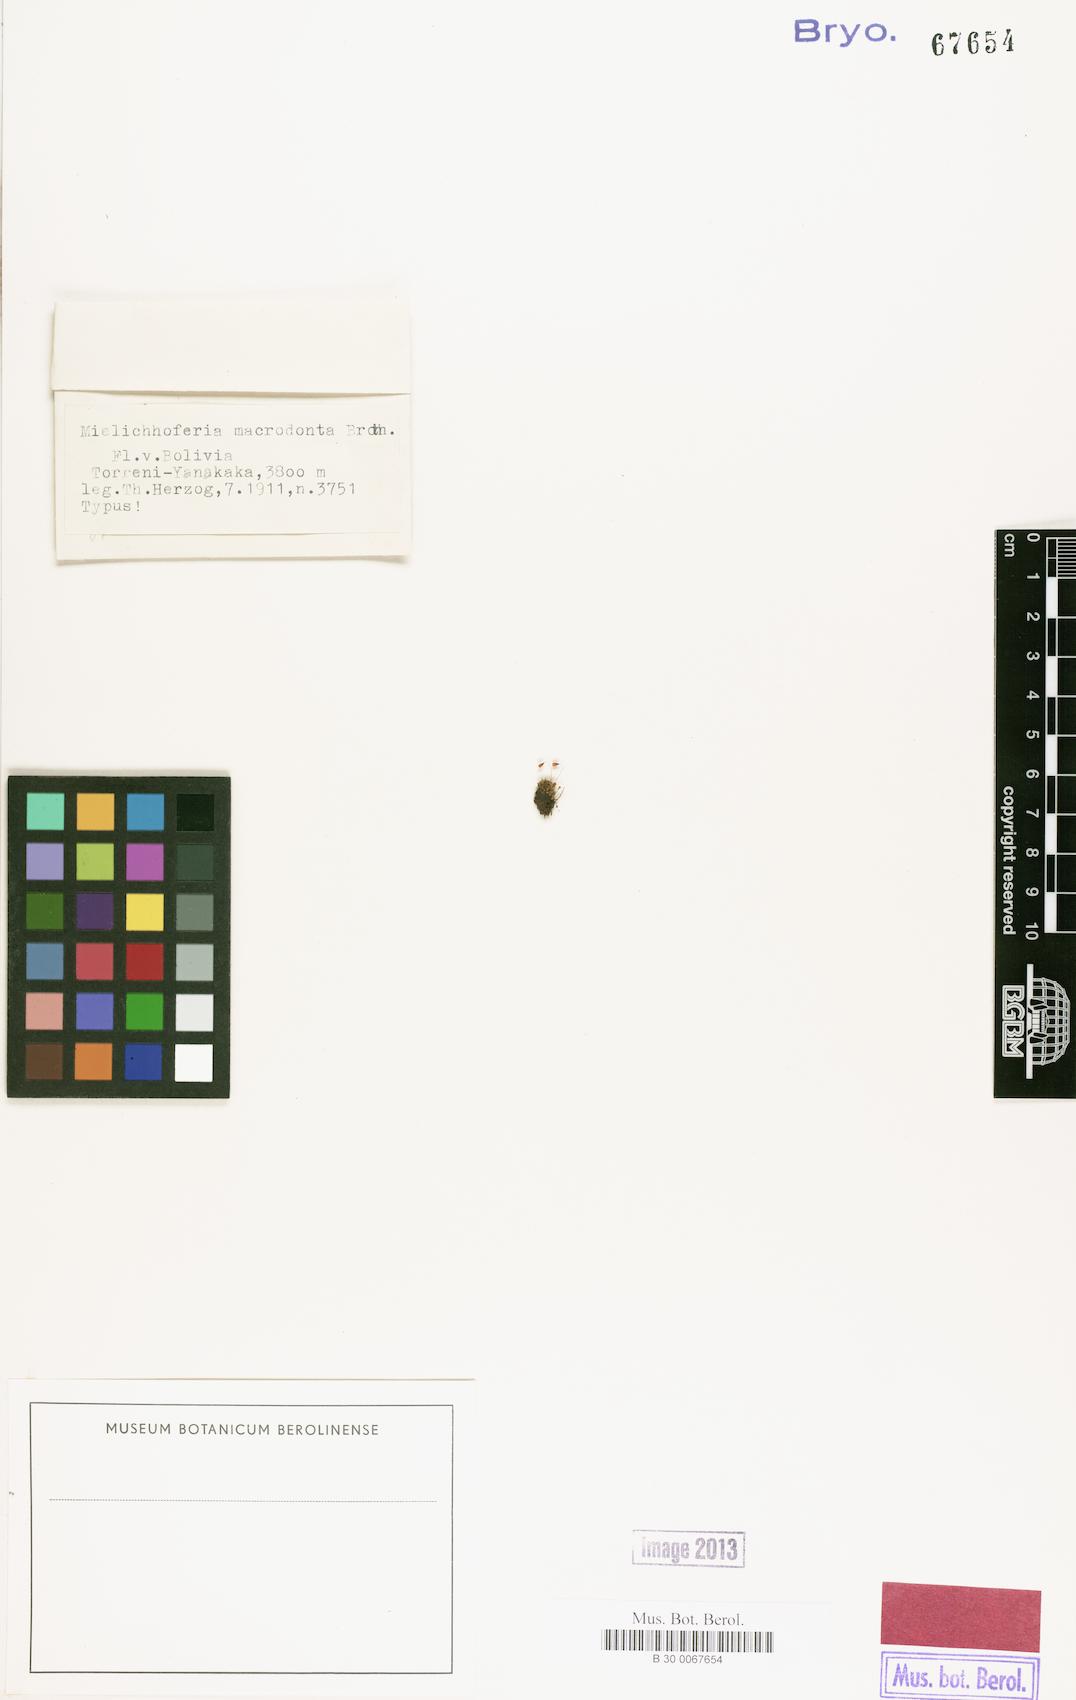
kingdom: Plantae
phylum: Bryophyta
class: Bryopsida
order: Bryales
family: Mniaceae
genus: Mielichhoferia
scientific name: Mielichhoferia macrodonta
